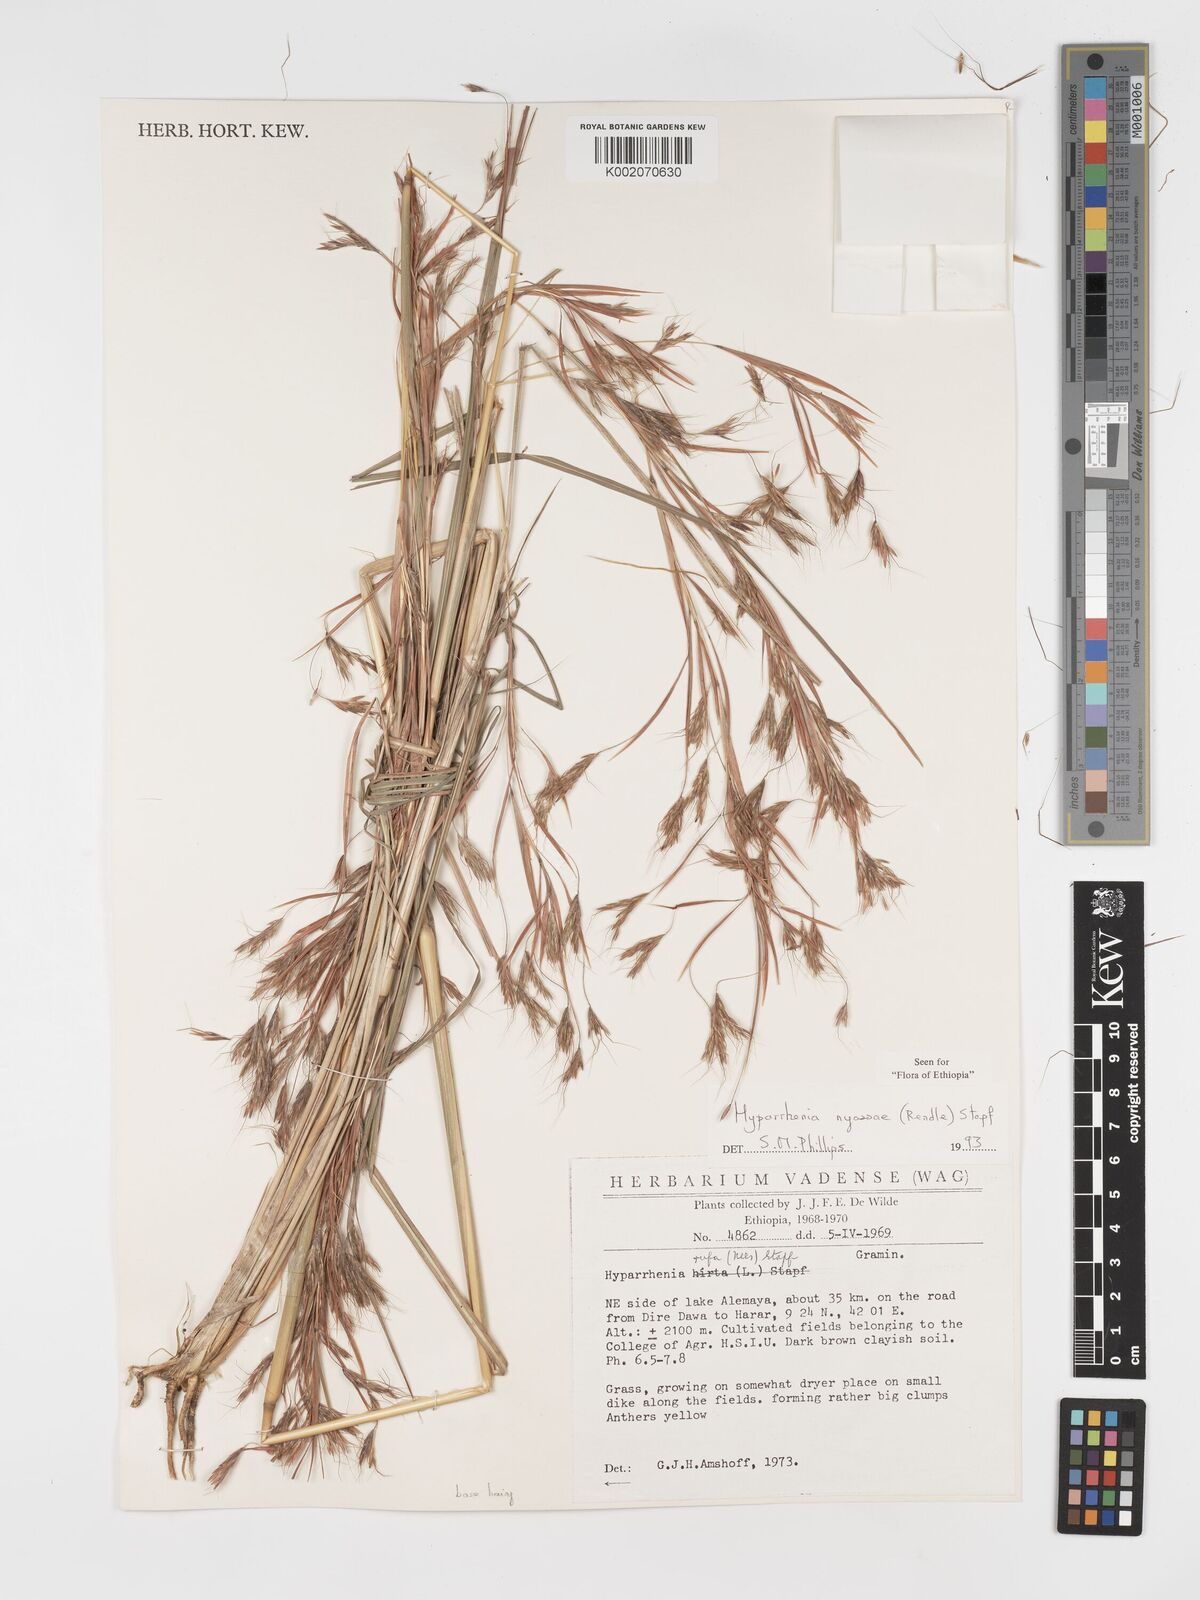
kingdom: Plantae
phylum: Tracheophyta
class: Liliopsida
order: Poales
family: Poaceae
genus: Hyparrhenia
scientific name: Hyparrhenia nyassae
